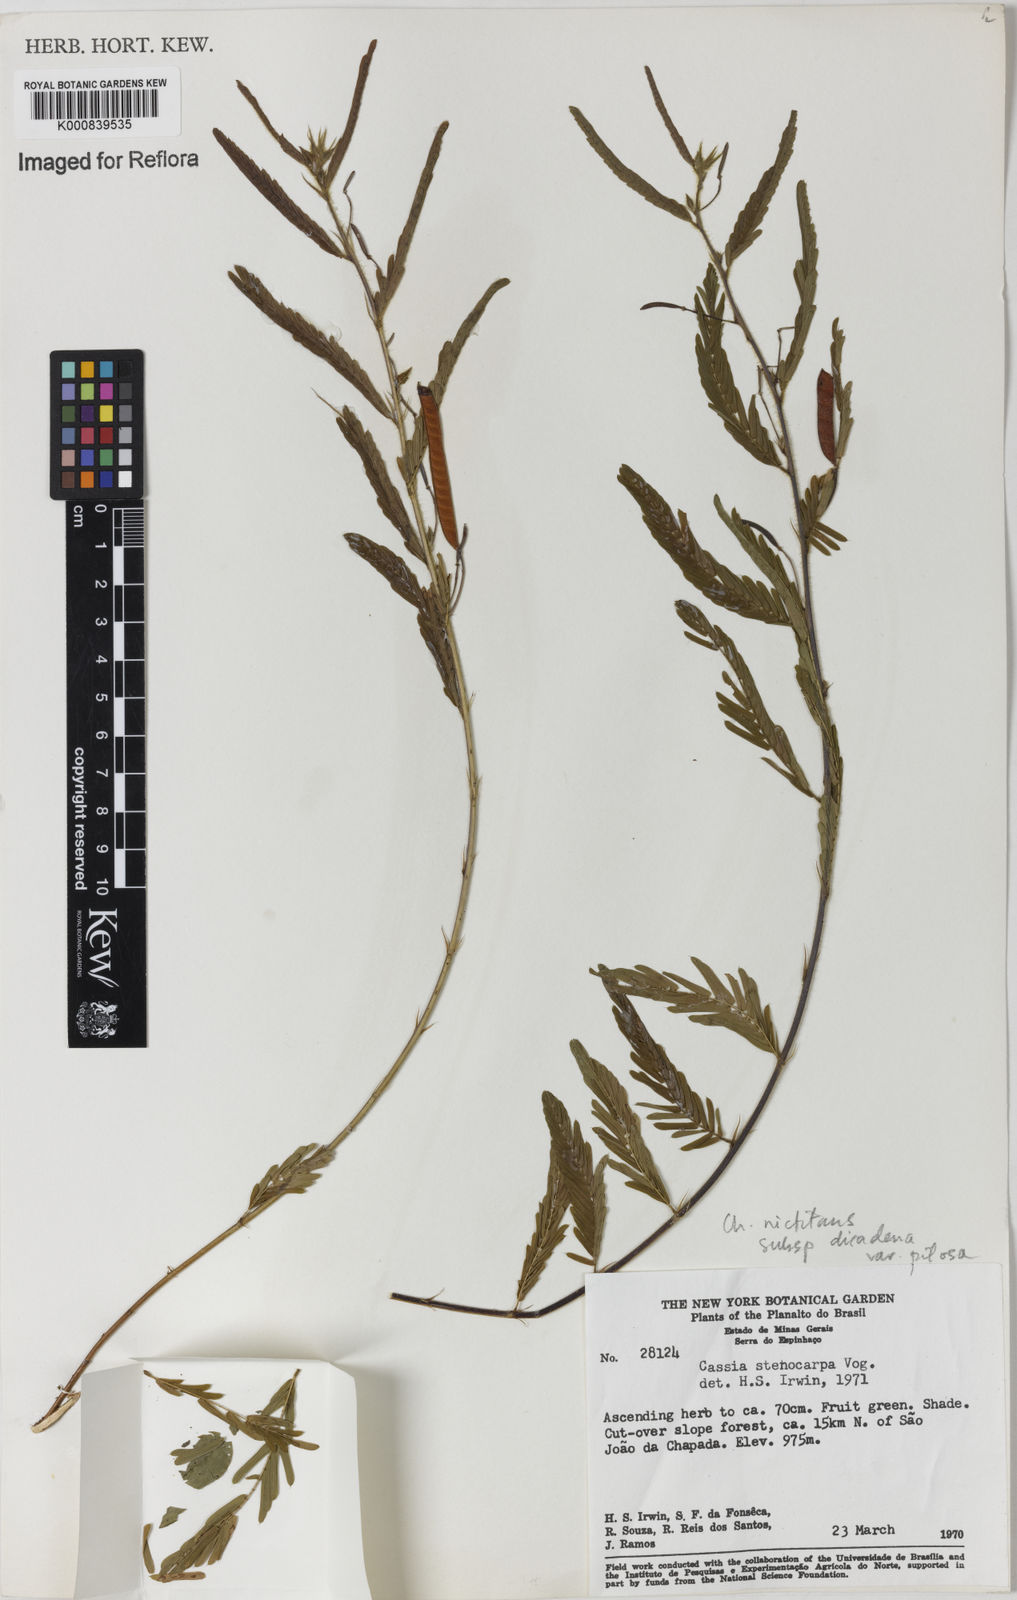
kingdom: Plantae
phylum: Tracheophyta
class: Magnoliopsida
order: Fabales
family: Fabaceae
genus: Chamaecrista
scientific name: Chamaecrista nictitans
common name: Sensitive cassia
